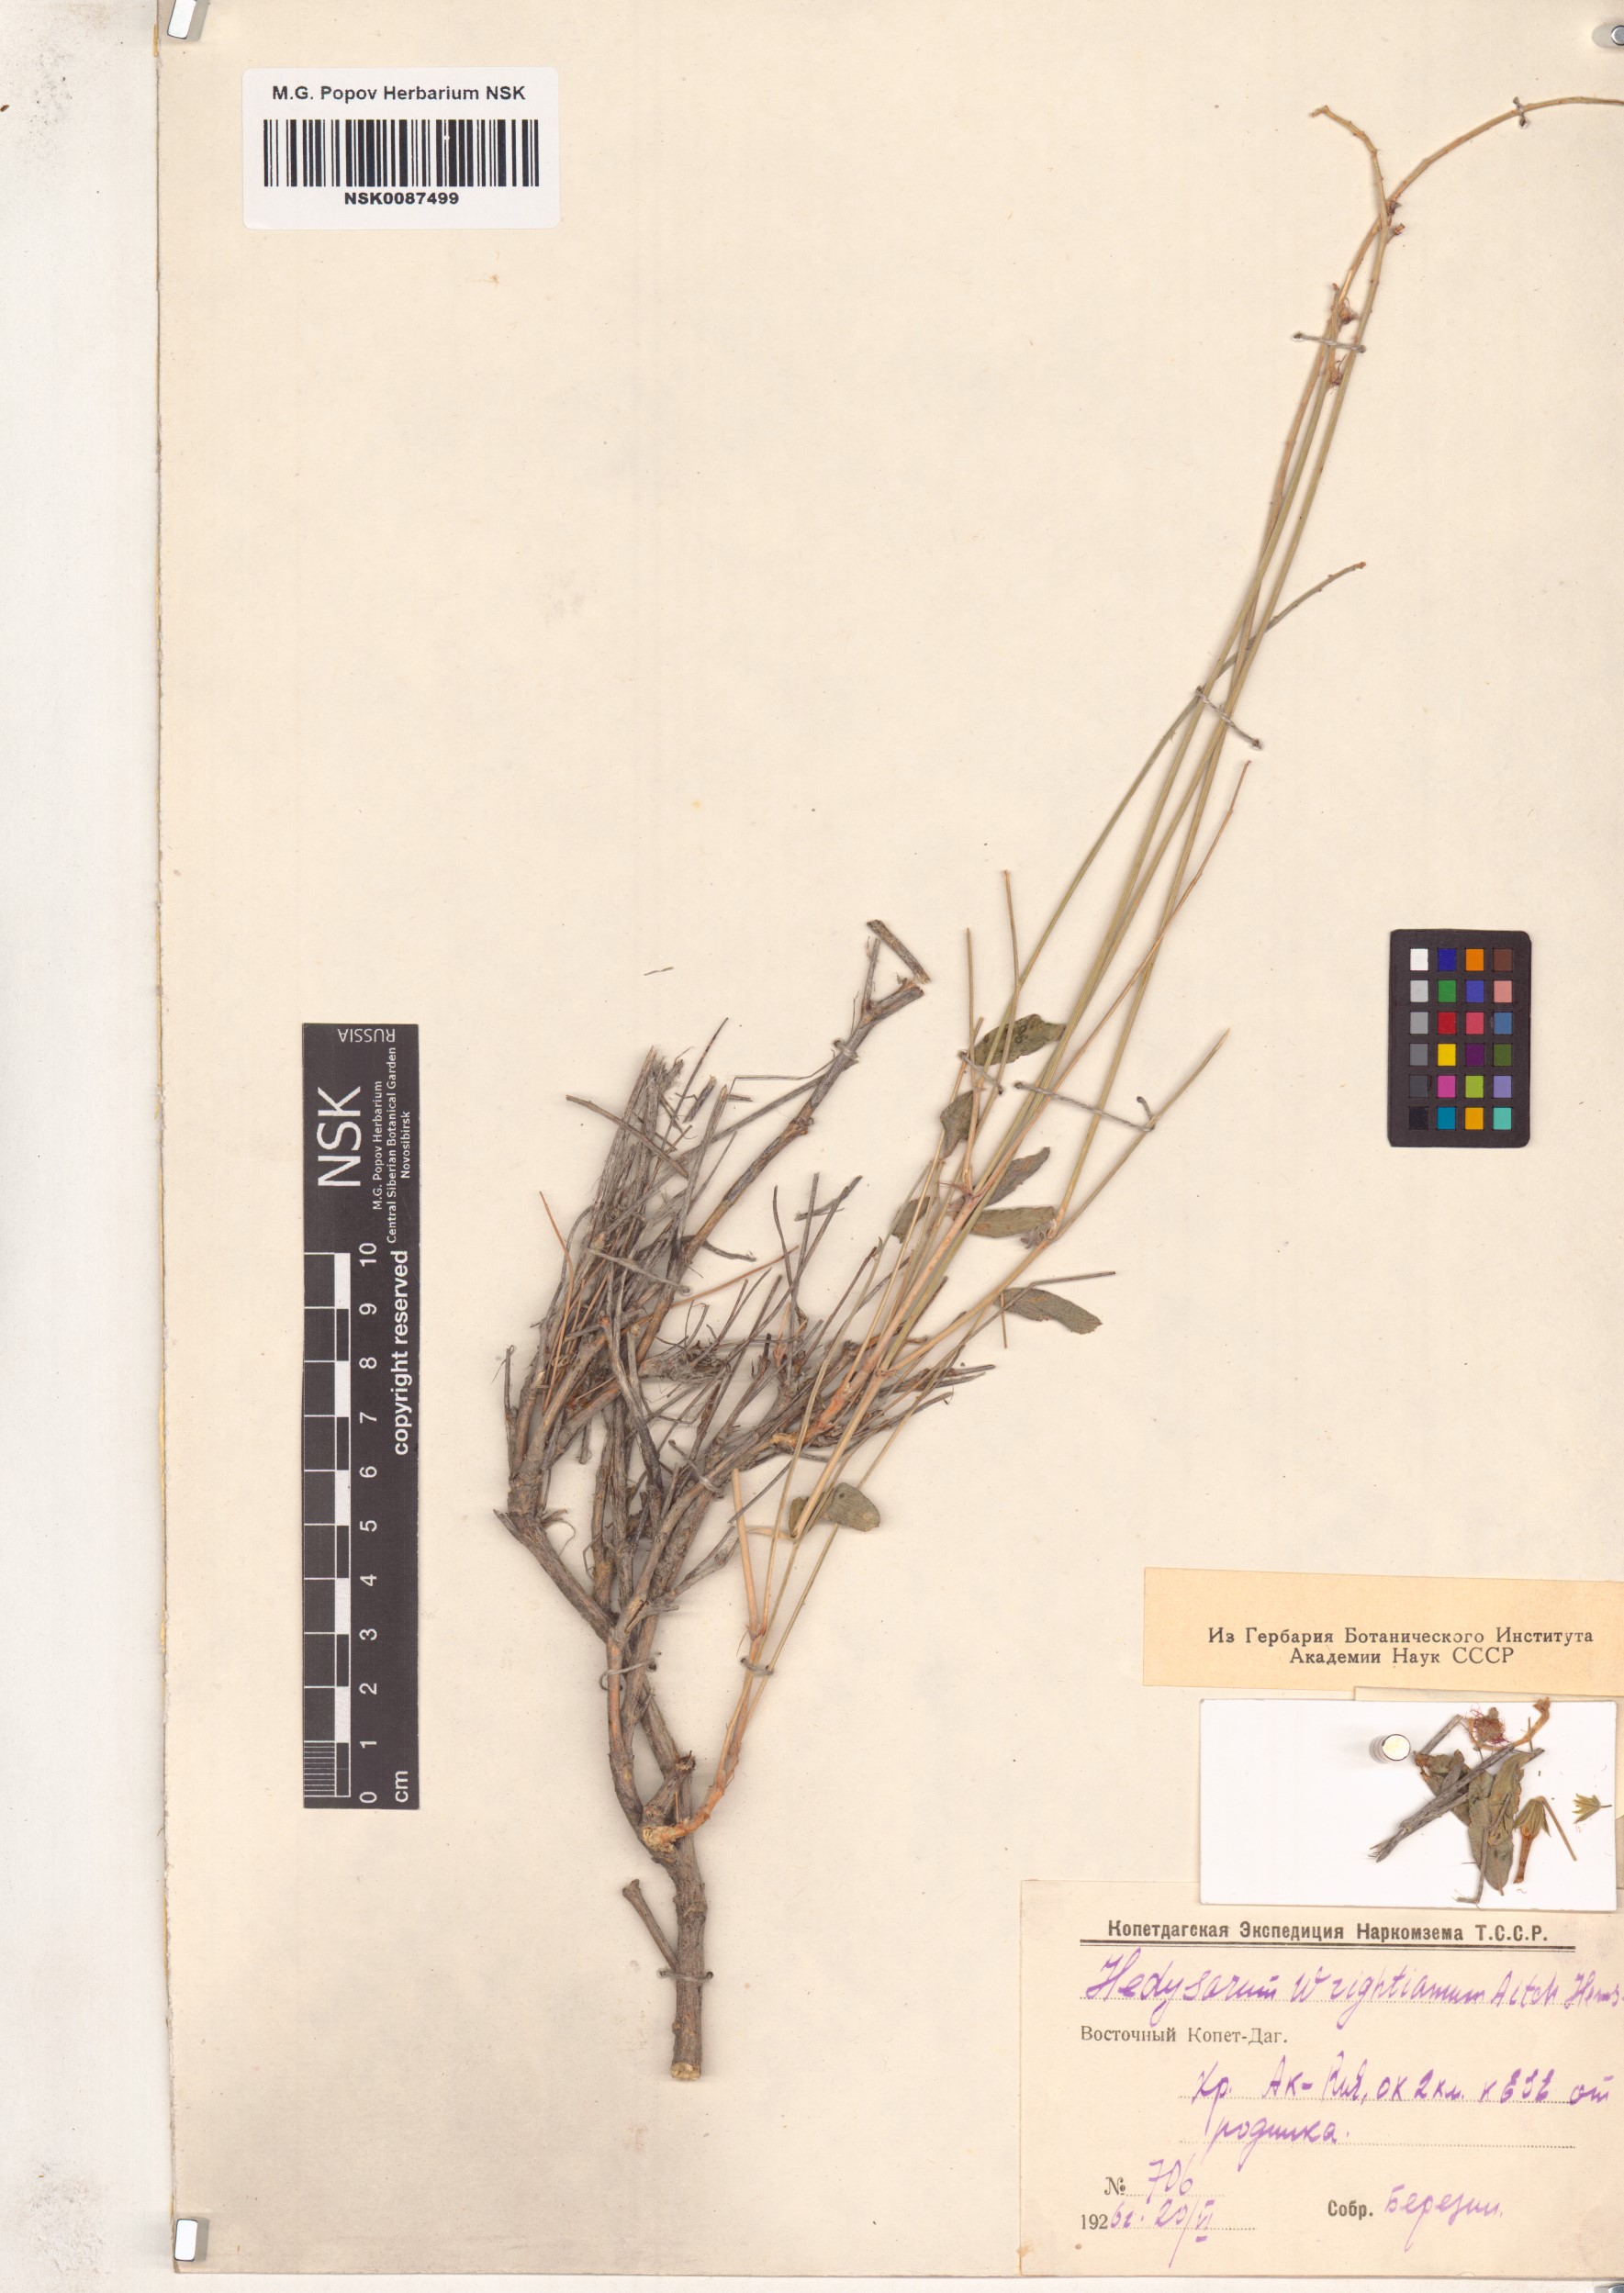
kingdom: Plantae
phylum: Tracheophyta
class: Magnoliopsida
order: Fabales
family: Fabaceae
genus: Hedysarum
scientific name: Hedysarum micropterum
